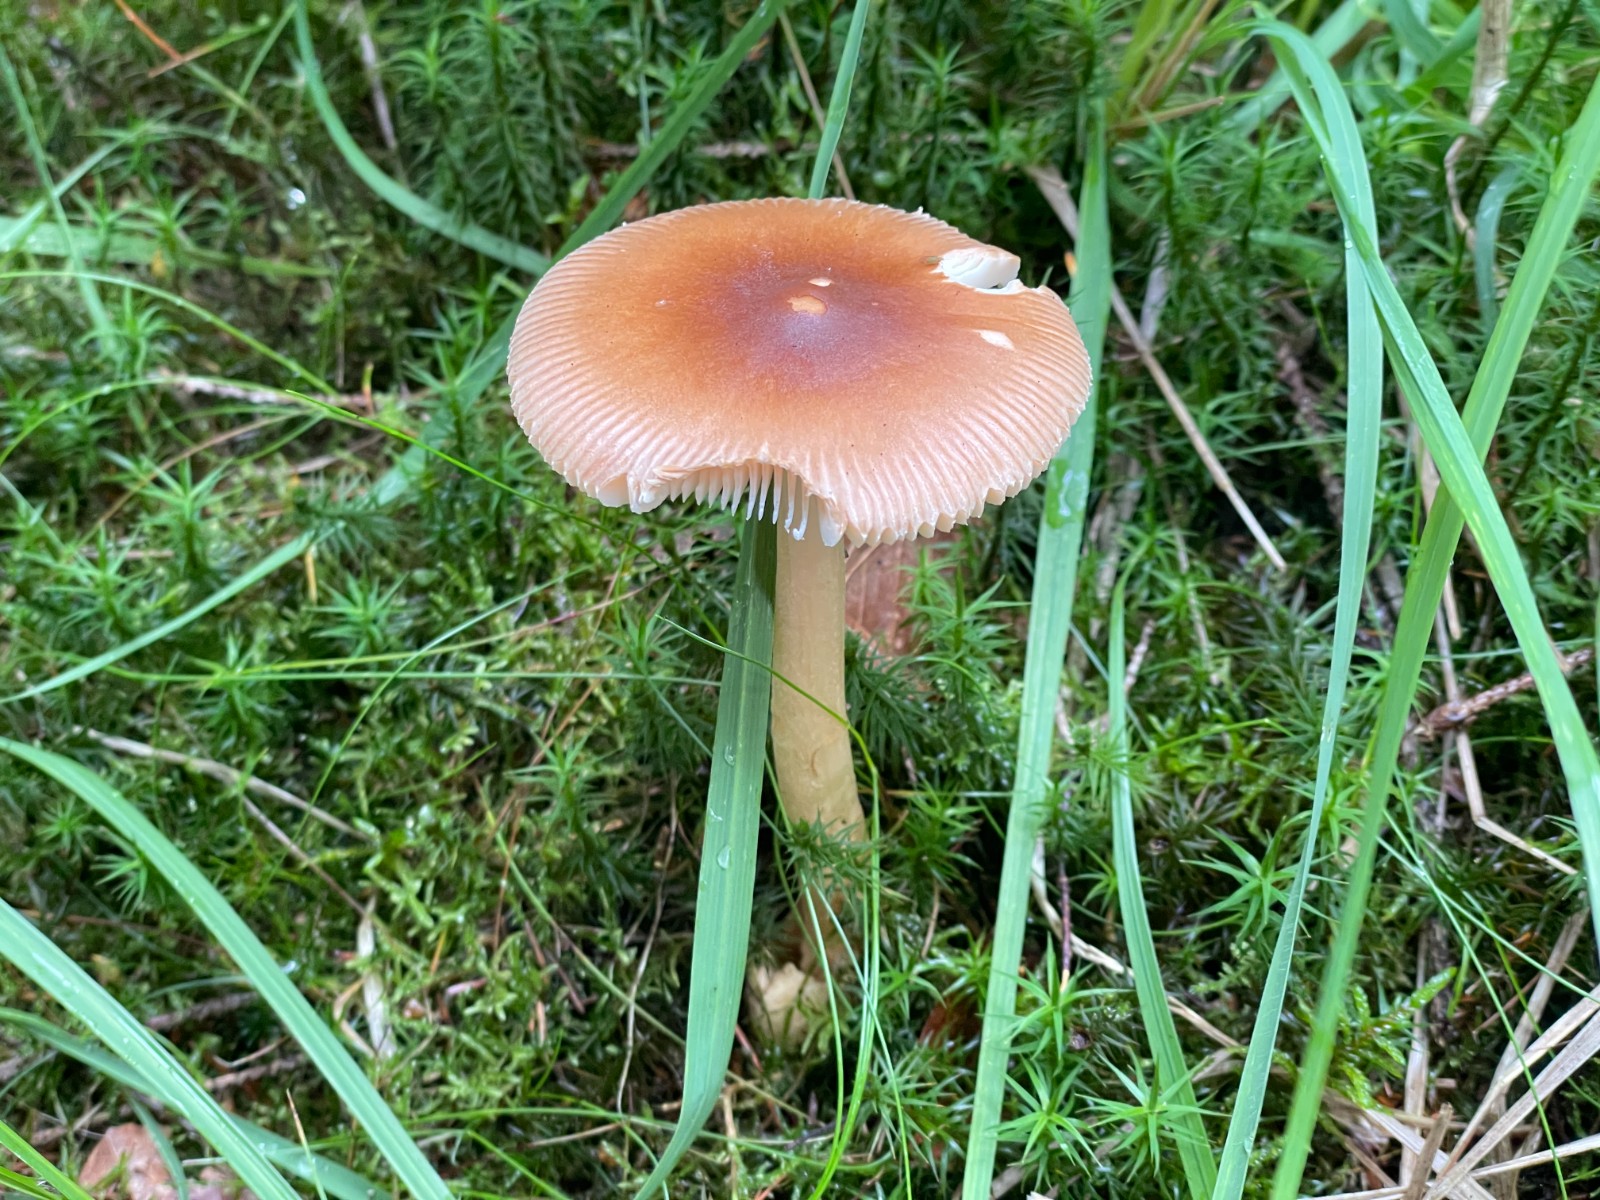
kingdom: Fungi
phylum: Basidiomycota
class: Agaricomycetes
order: Agaricales
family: Amanitaceae
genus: Amanita
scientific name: Amanita fulva
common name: brun kam-fluesvamp
